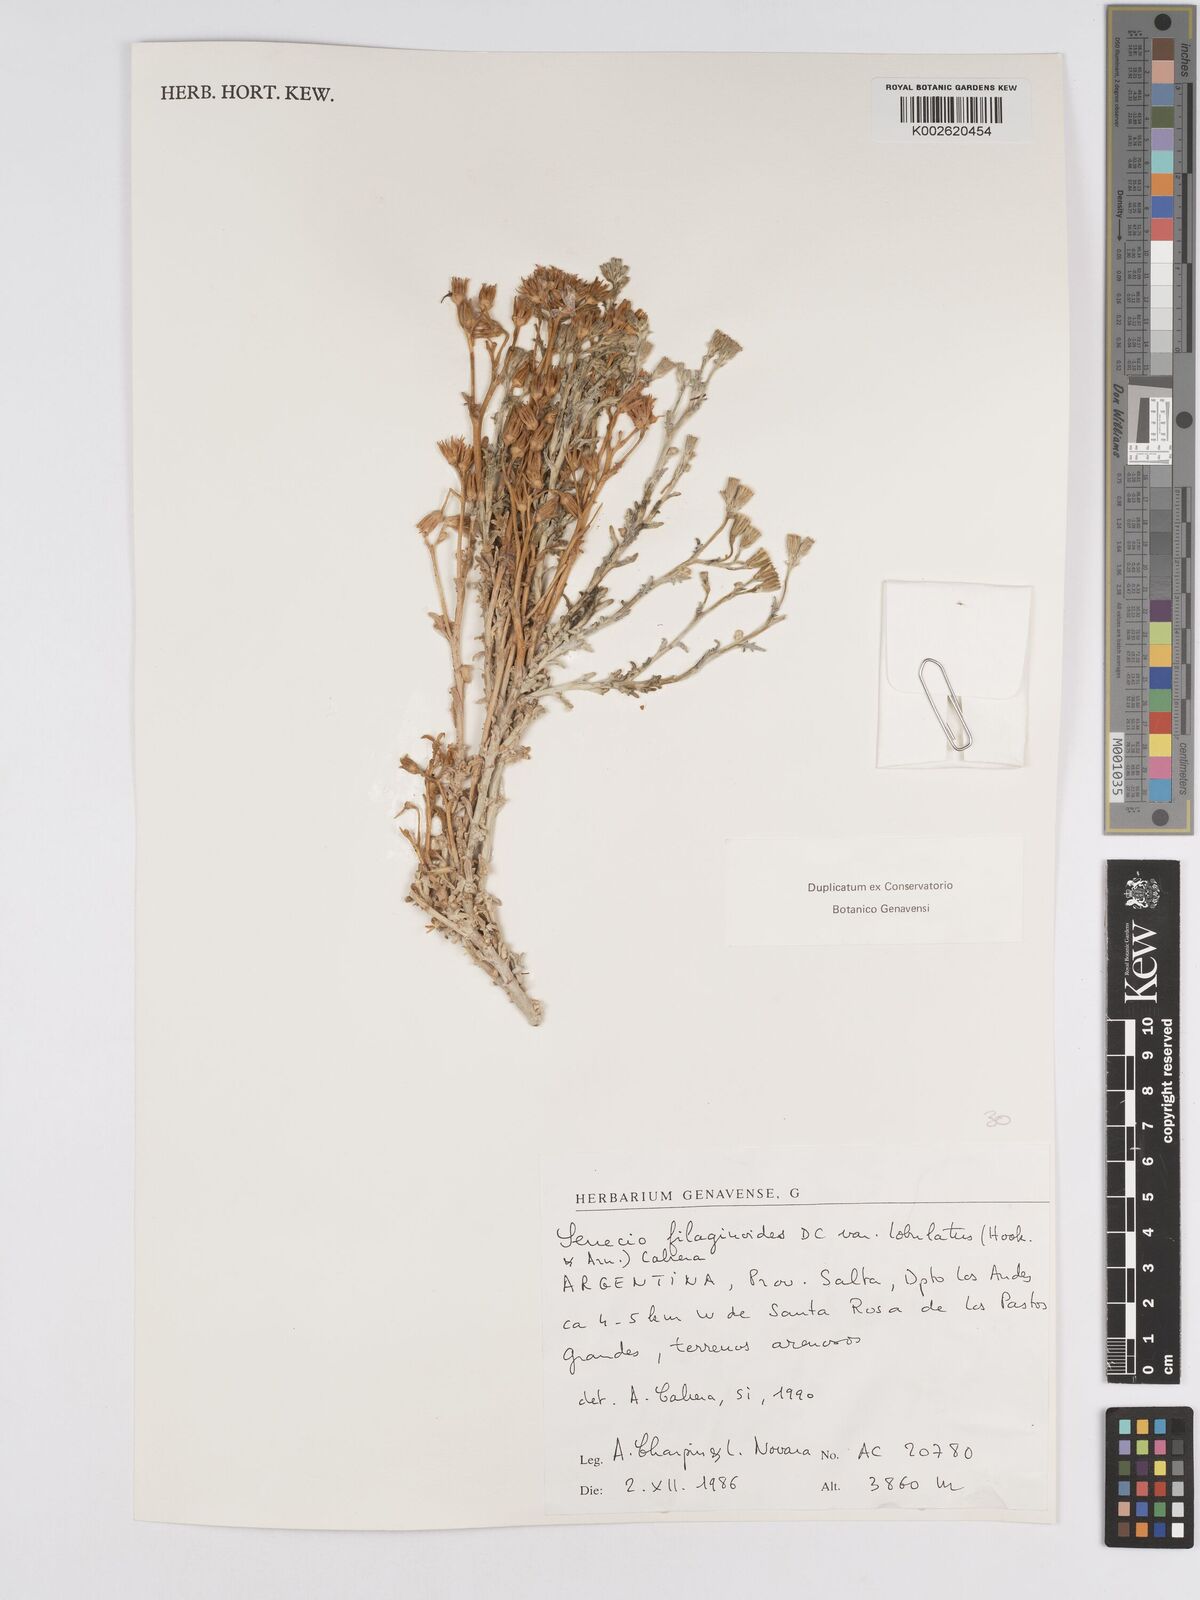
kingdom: Plantae
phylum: Tracheophyta
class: Magnoliopsida
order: Asterales
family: Asteraceae
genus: Senecio
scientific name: Senecio filaginoides
